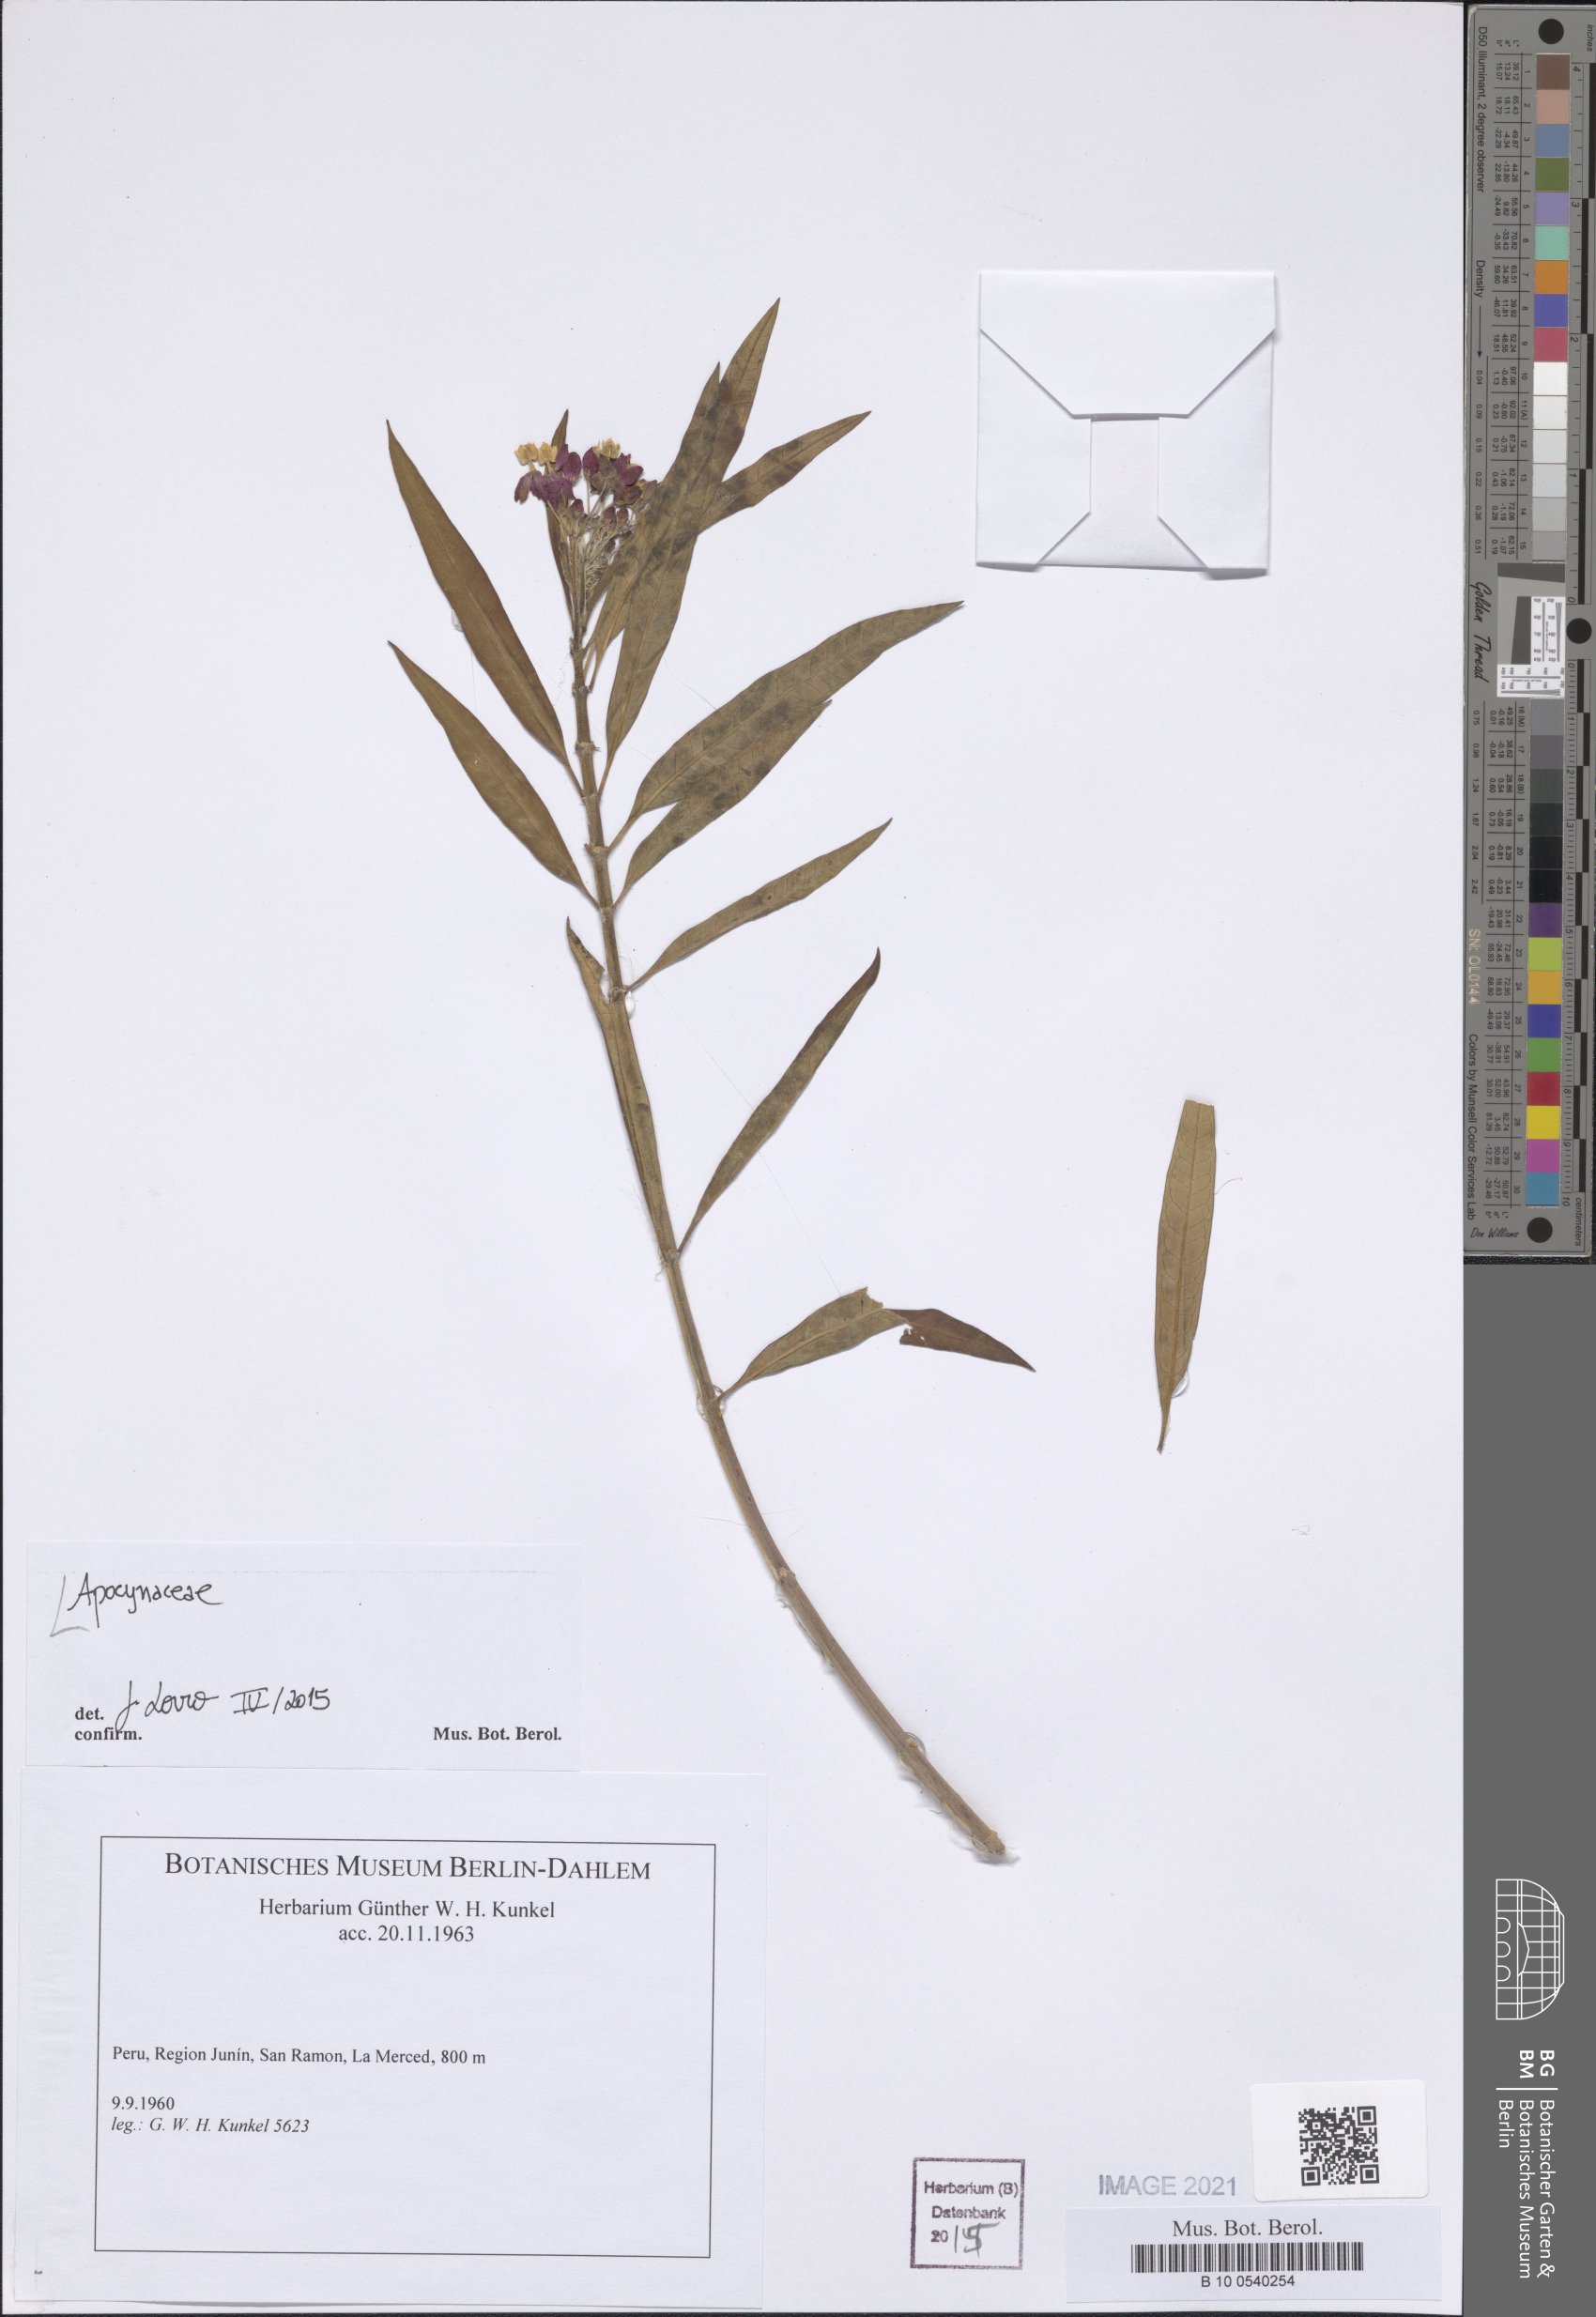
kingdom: Plantae
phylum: Tracheophyta
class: Magnoliopsida
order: Gentianales
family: Apocynaceae
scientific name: Apocynaceae
